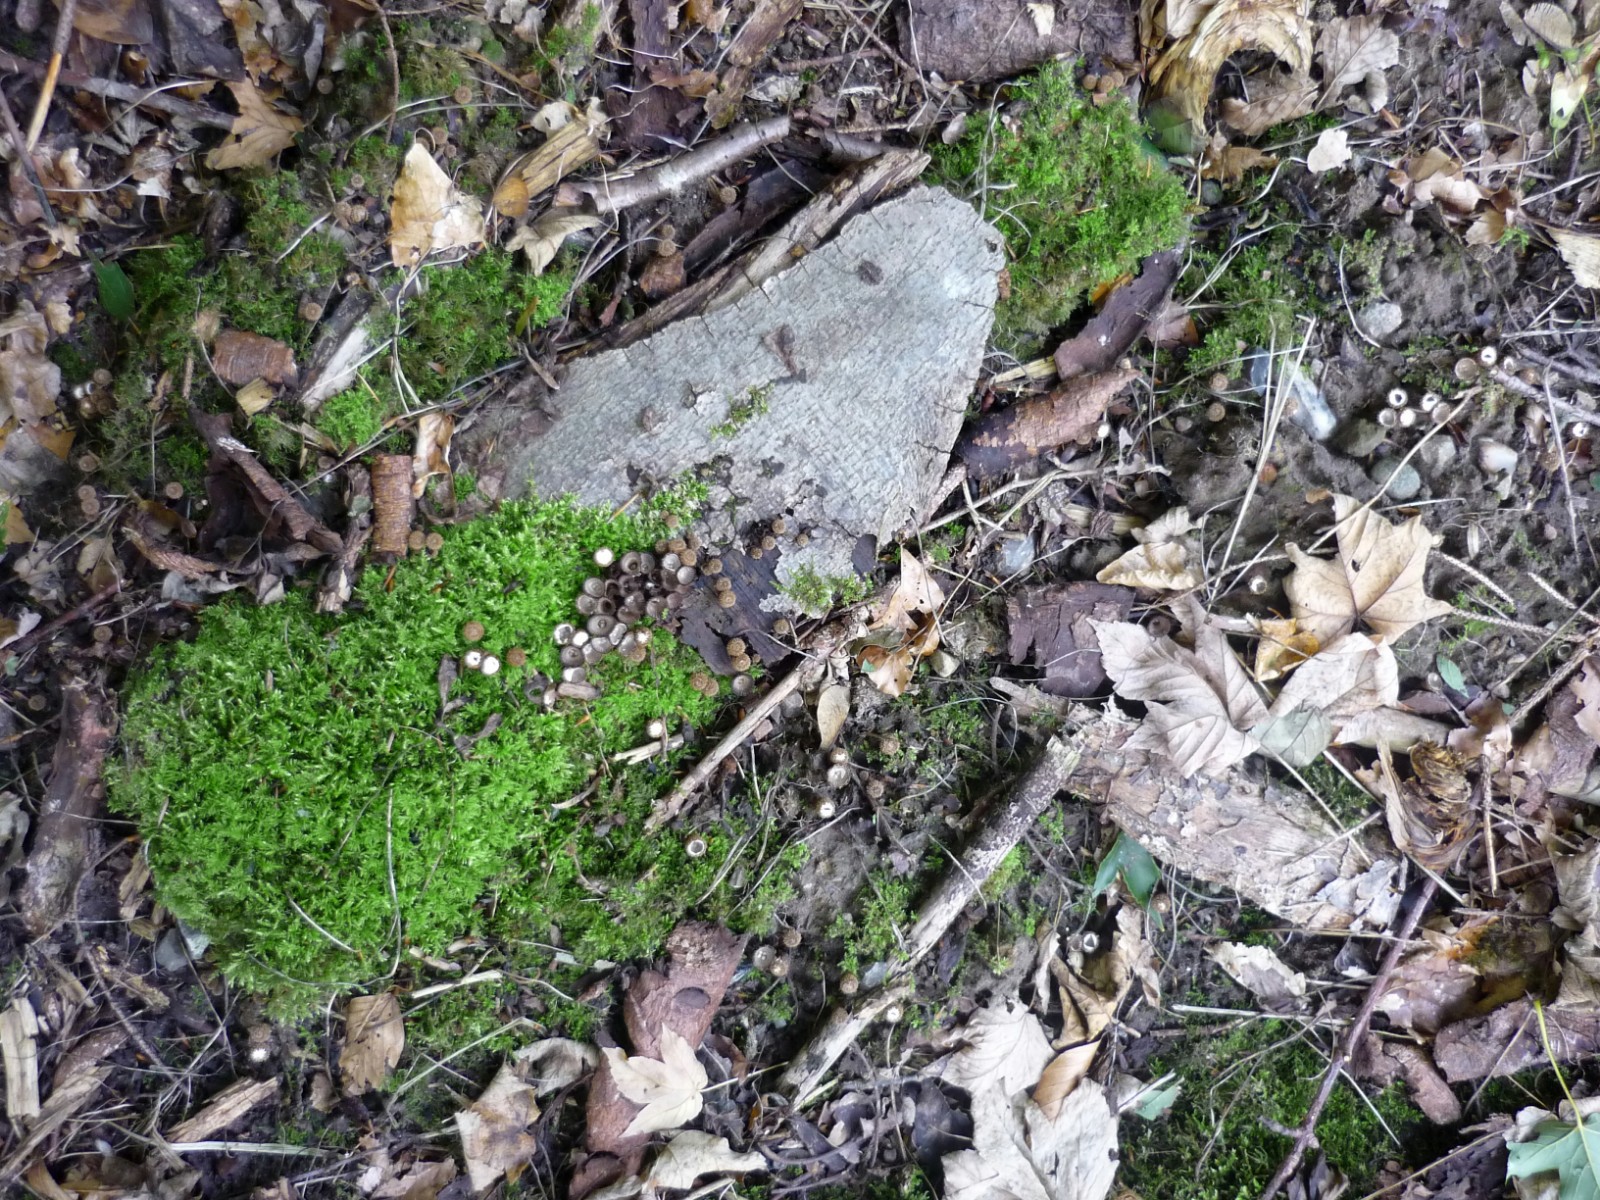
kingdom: Fungi
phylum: Basidiomycota
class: Agaricomycetes
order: Agaricales
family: Agaricaceae
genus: Cyathus
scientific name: Cyathus striatus
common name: stribet redesvamp
